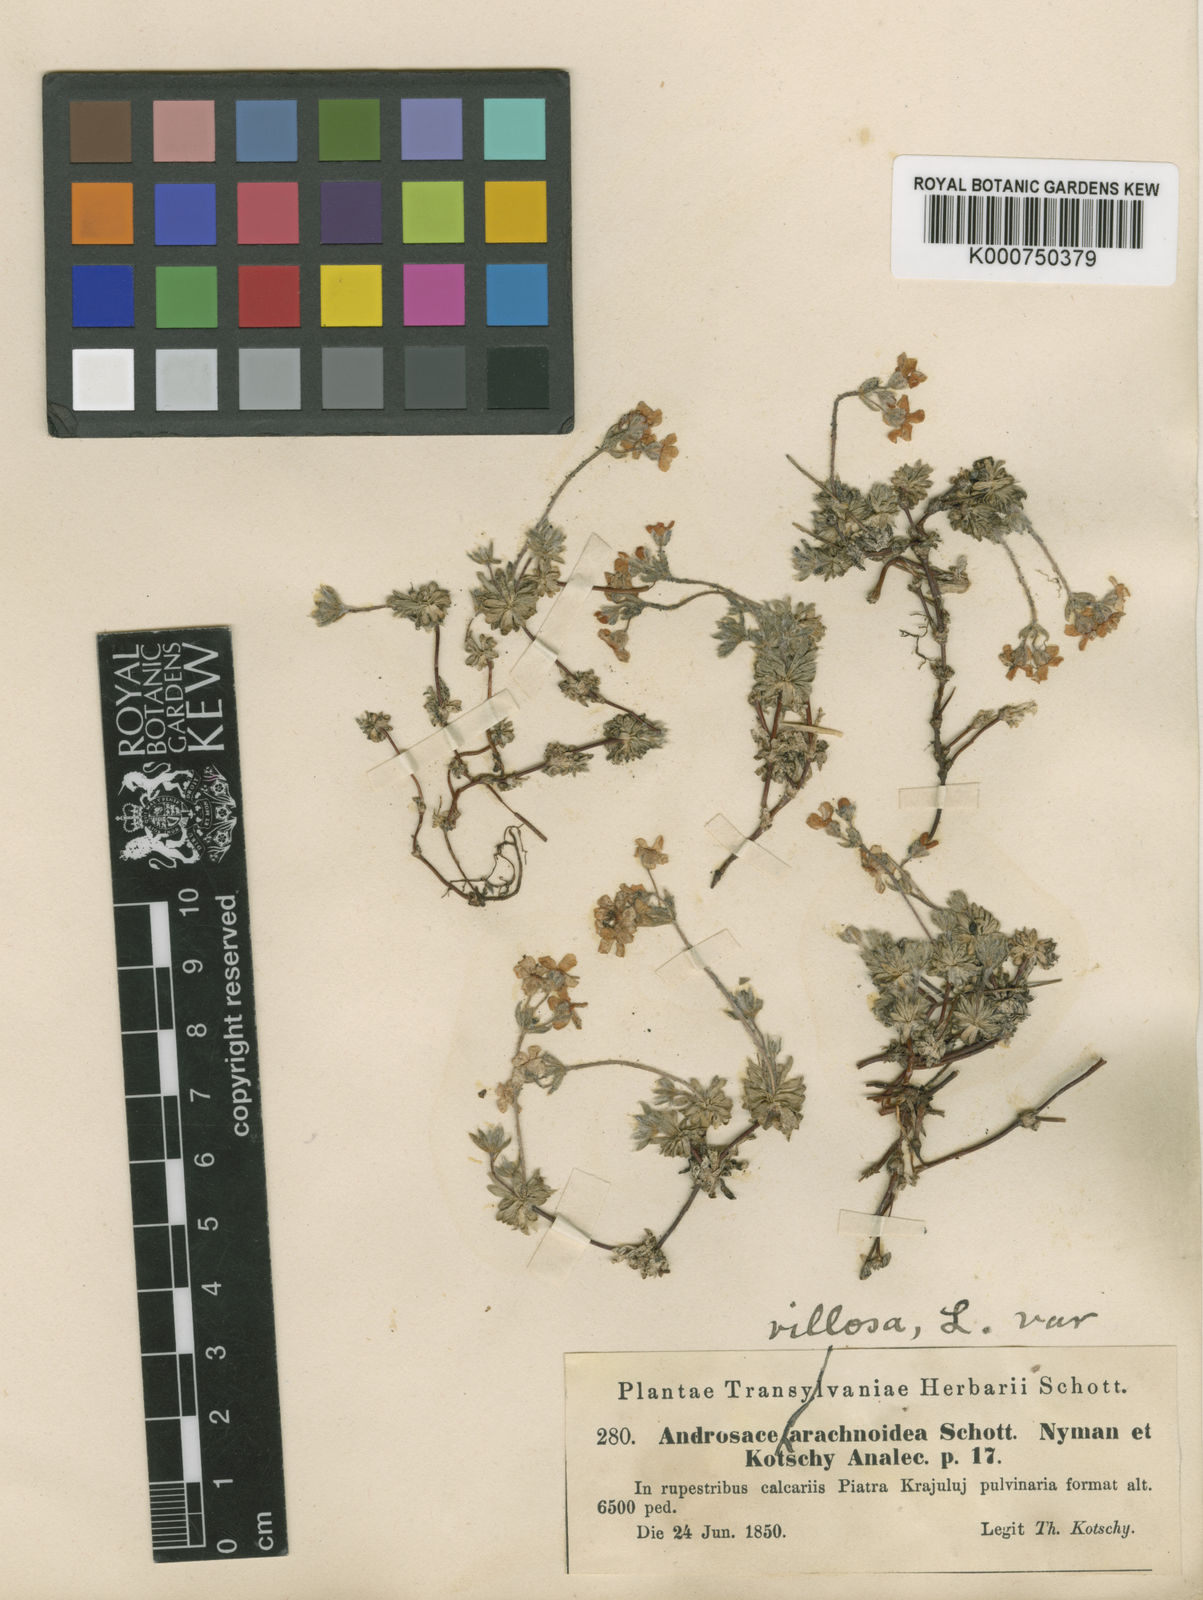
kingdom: Plantae
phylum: Tracheophyta
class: Magnoliopsida
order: Ericales
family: Primulaceae
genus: Androsace
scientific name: Androsace villosa
